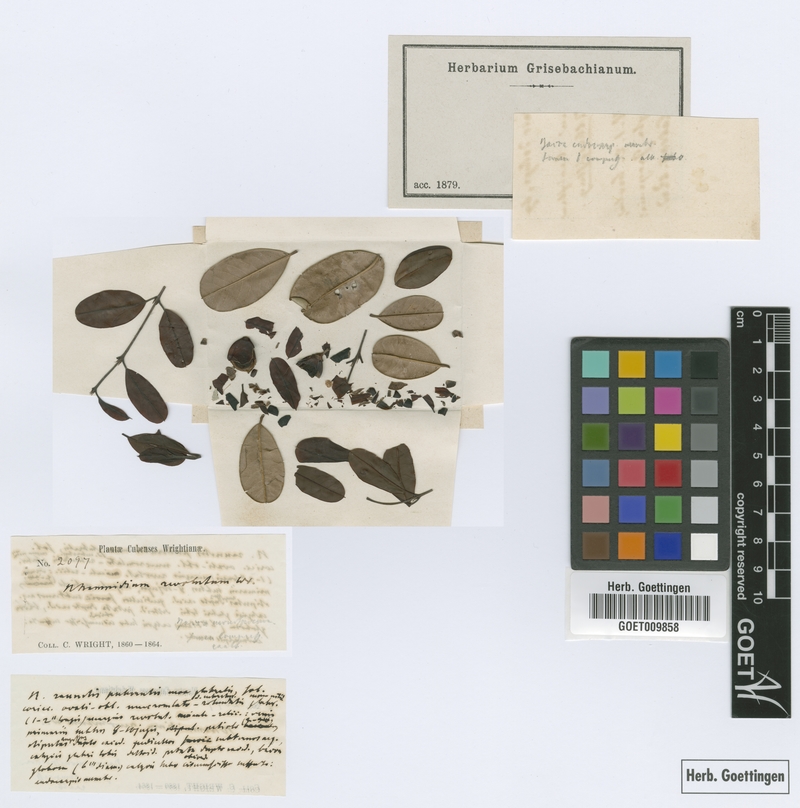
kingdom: Plantae
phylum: Tracheophyta
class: Magnoliopsida
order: Rosales
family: Rhamnaceae
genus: Reynosia
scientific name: Reynosia revoluta
